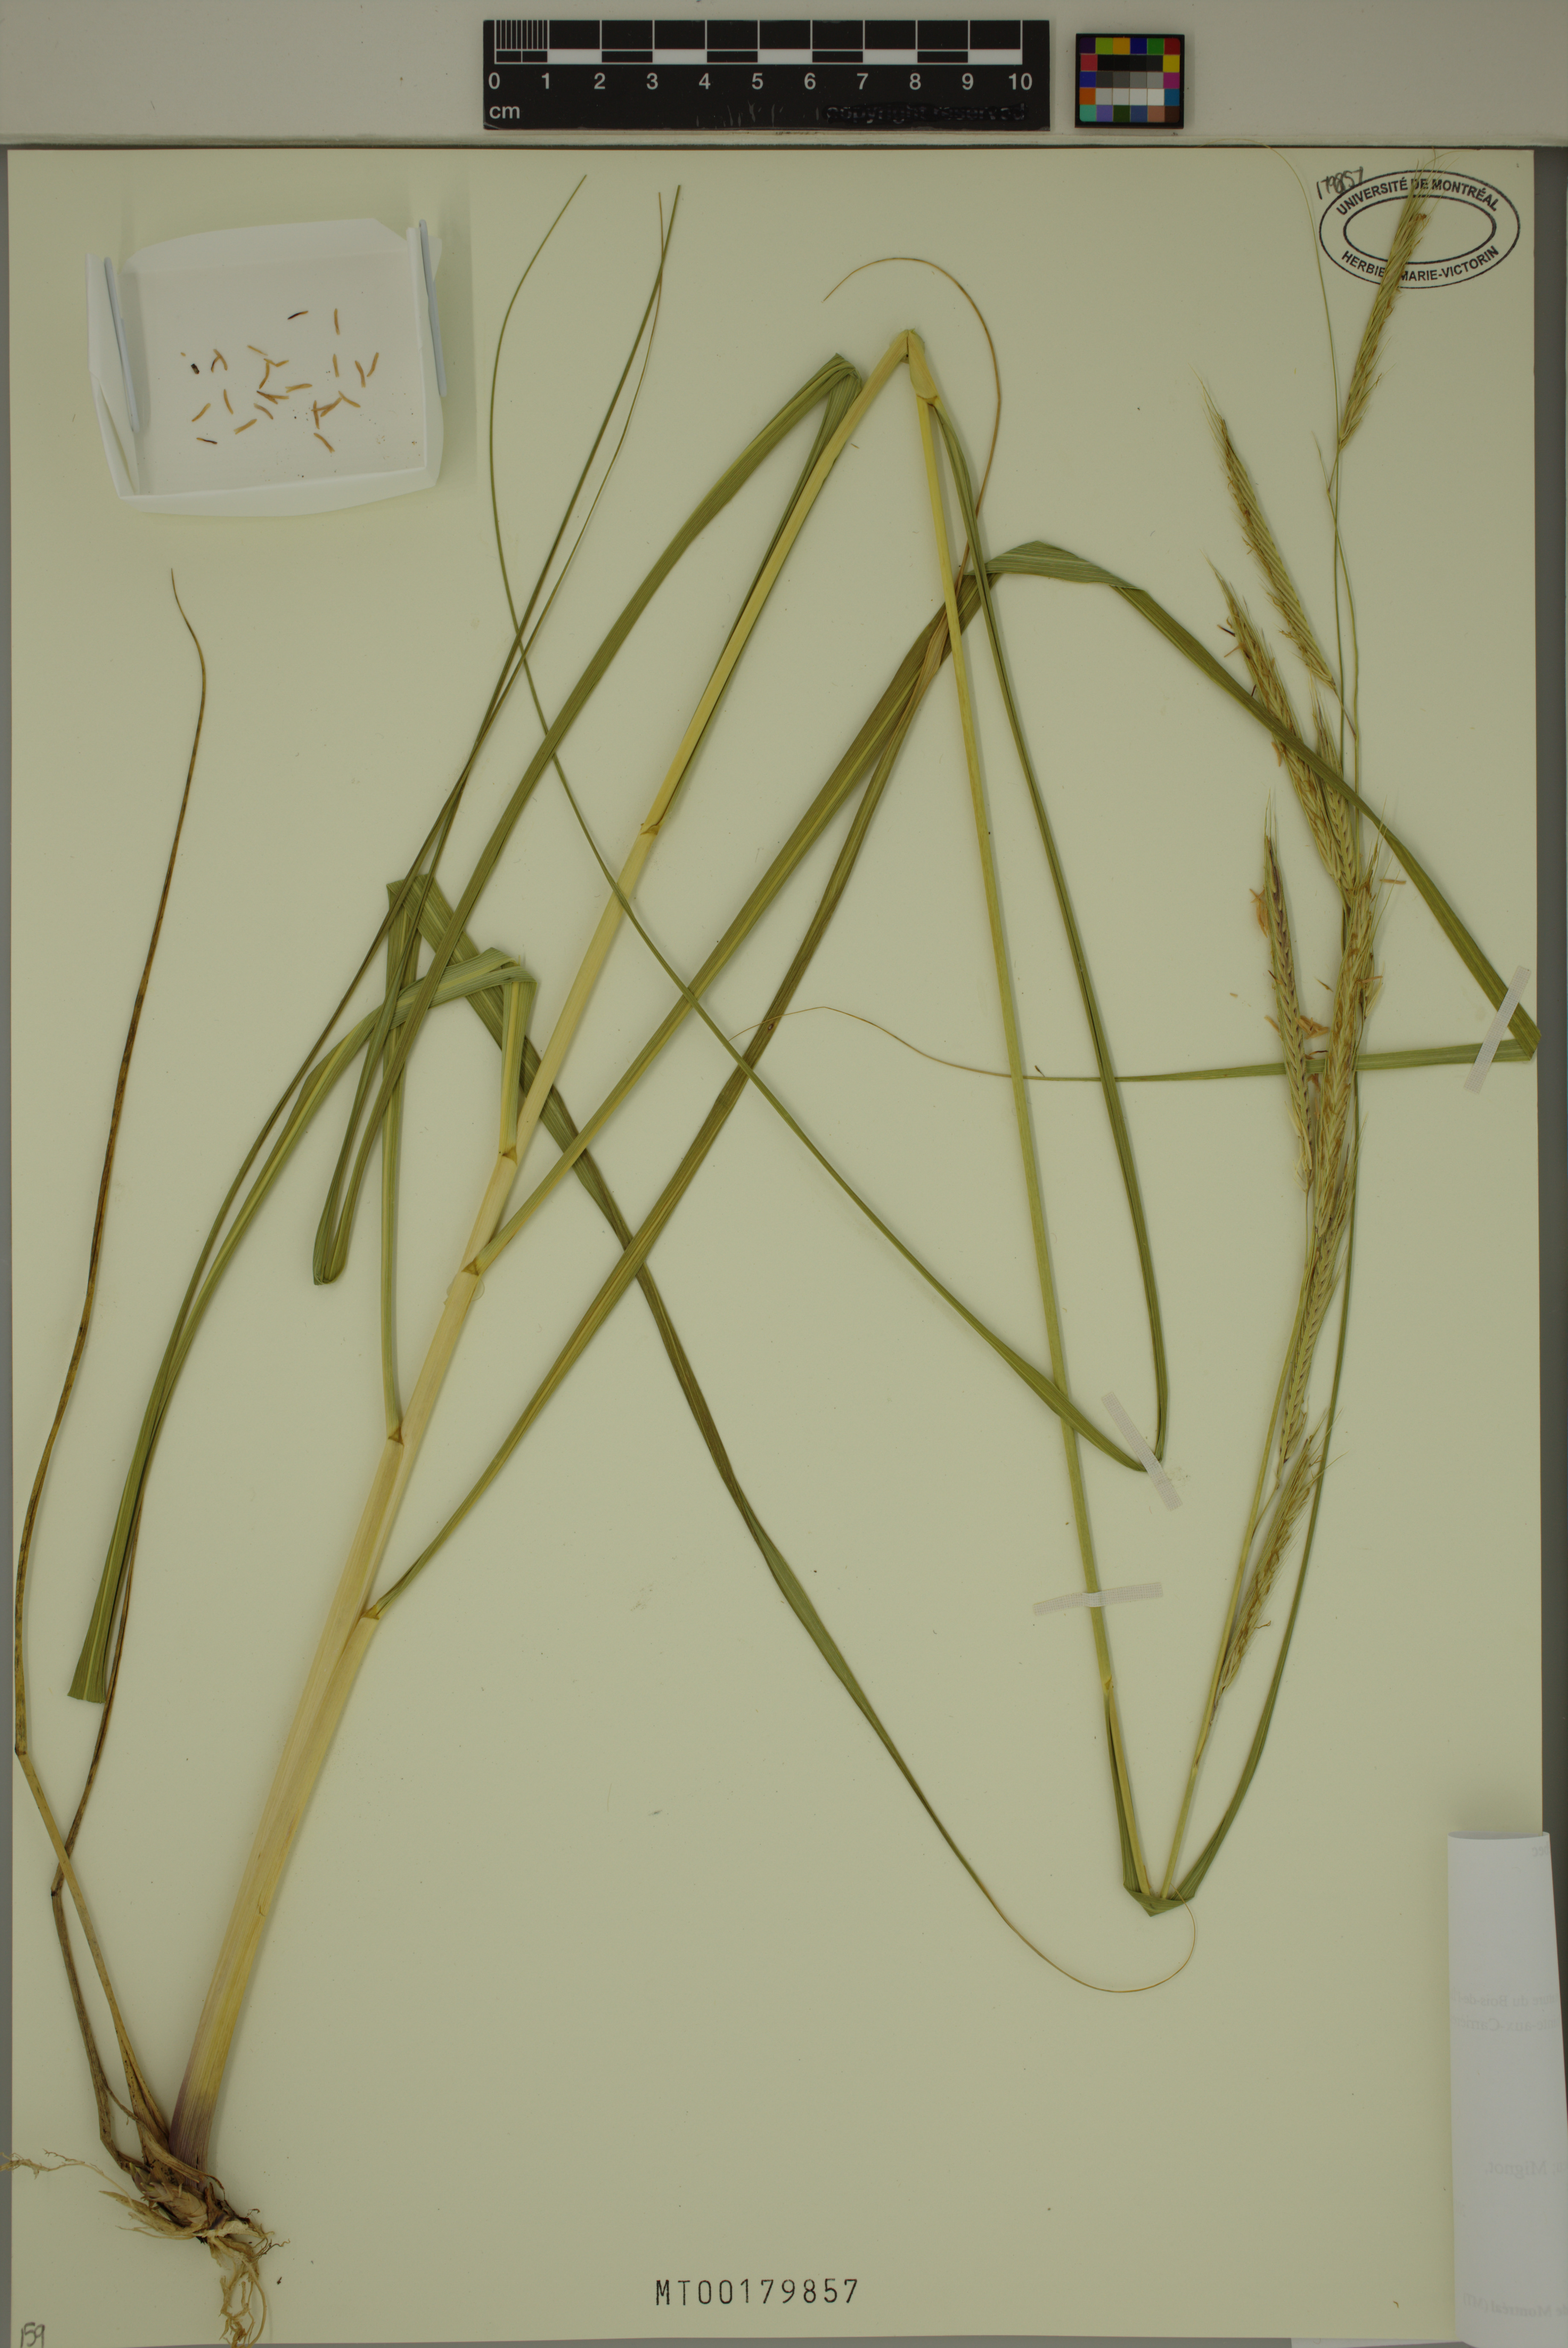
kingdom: Plantae
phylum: Tracheophyta
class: Liliopsida
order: Poales
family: Poaceae
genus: Sporobolus
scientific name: Sporobolus michauxianus
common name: Freshwater cordgrass
